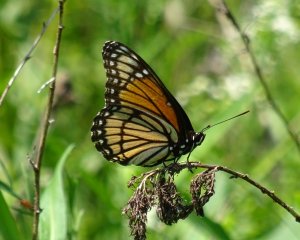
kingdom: Animalia
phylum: Arthropoda
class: Insecta
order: Lepidoptera
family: Nymphalidae
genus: Limenitis
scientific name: Limenitis archippus
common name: Viceroy
